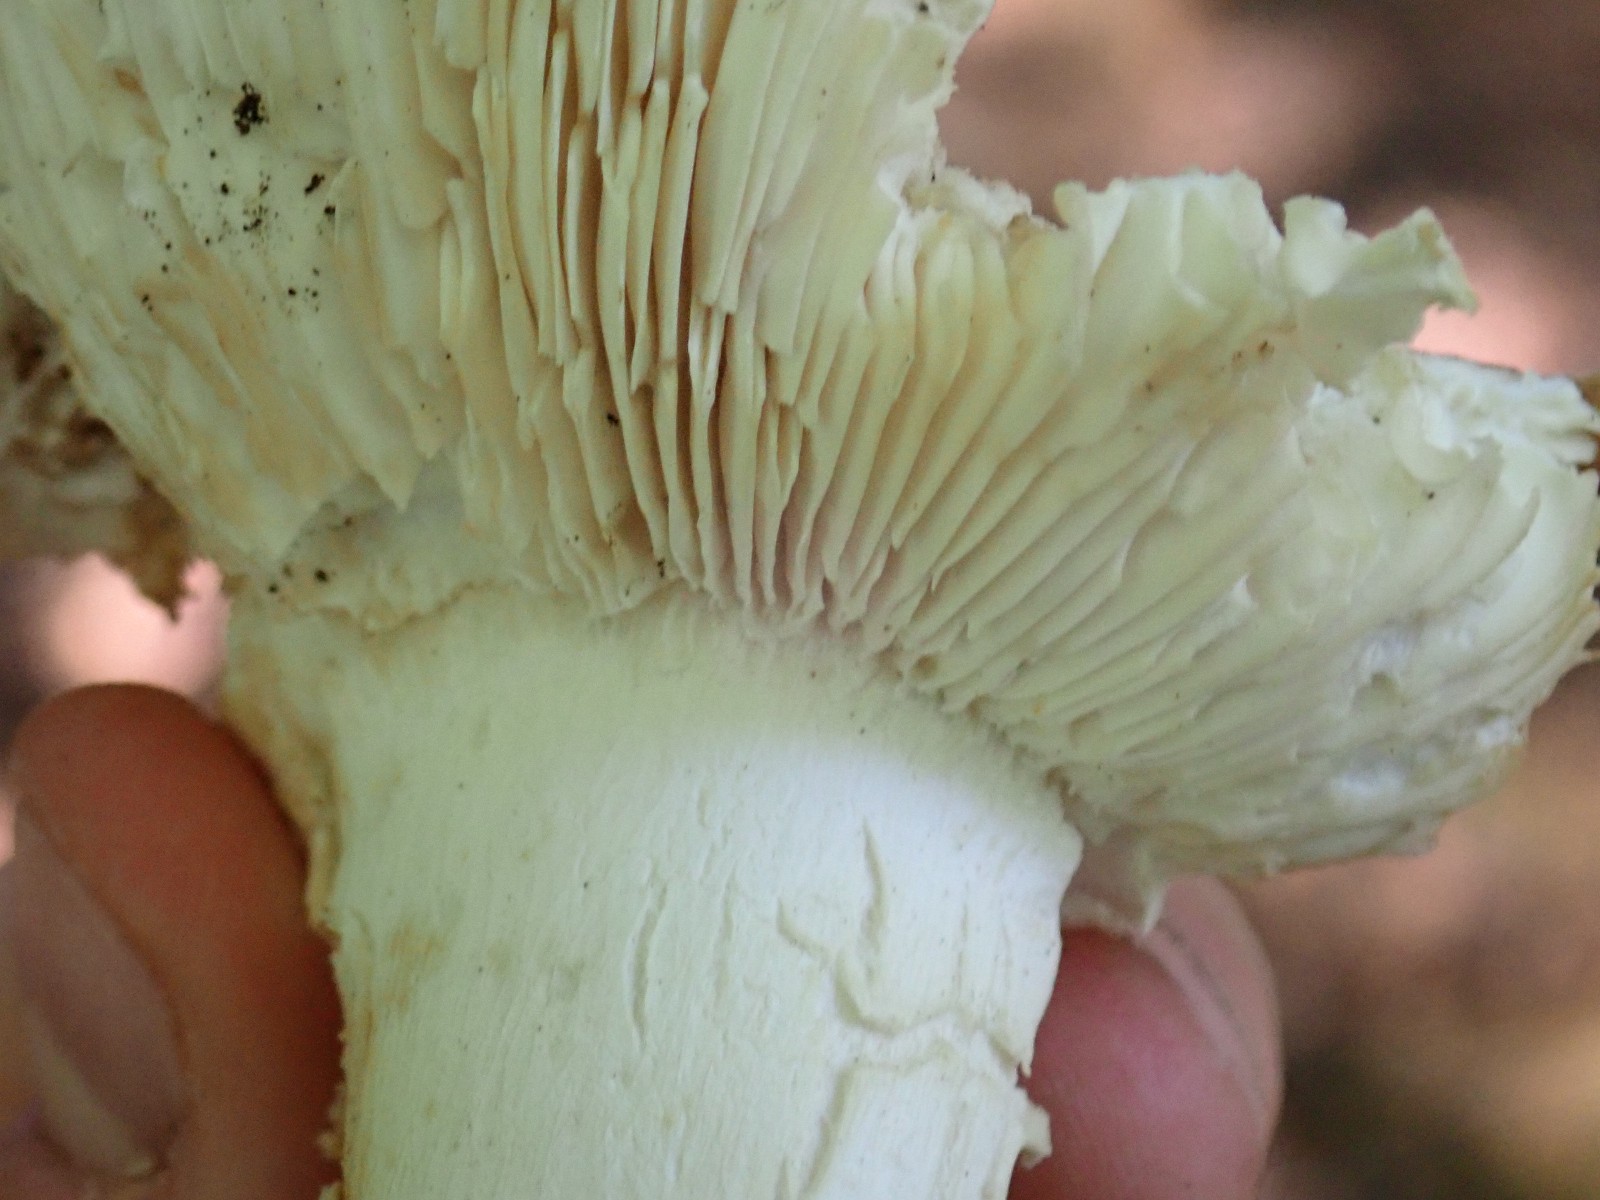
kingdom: Fungi
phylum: Basidiomycota
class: Agaricomycetes
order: Russulales
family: Russulaceae
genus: Russula
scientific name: Russula cyanoxantha
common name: broget skørhat
